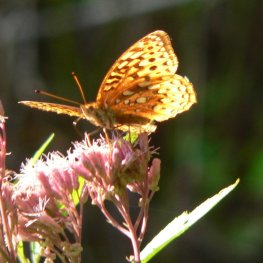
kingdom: Animalia
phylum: Arthropoda
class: Insecta
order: Lepidoptera
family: Nymphalidae
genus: Speyeria
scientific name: Speyeria cybele
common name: Great Spangled Fritillary
